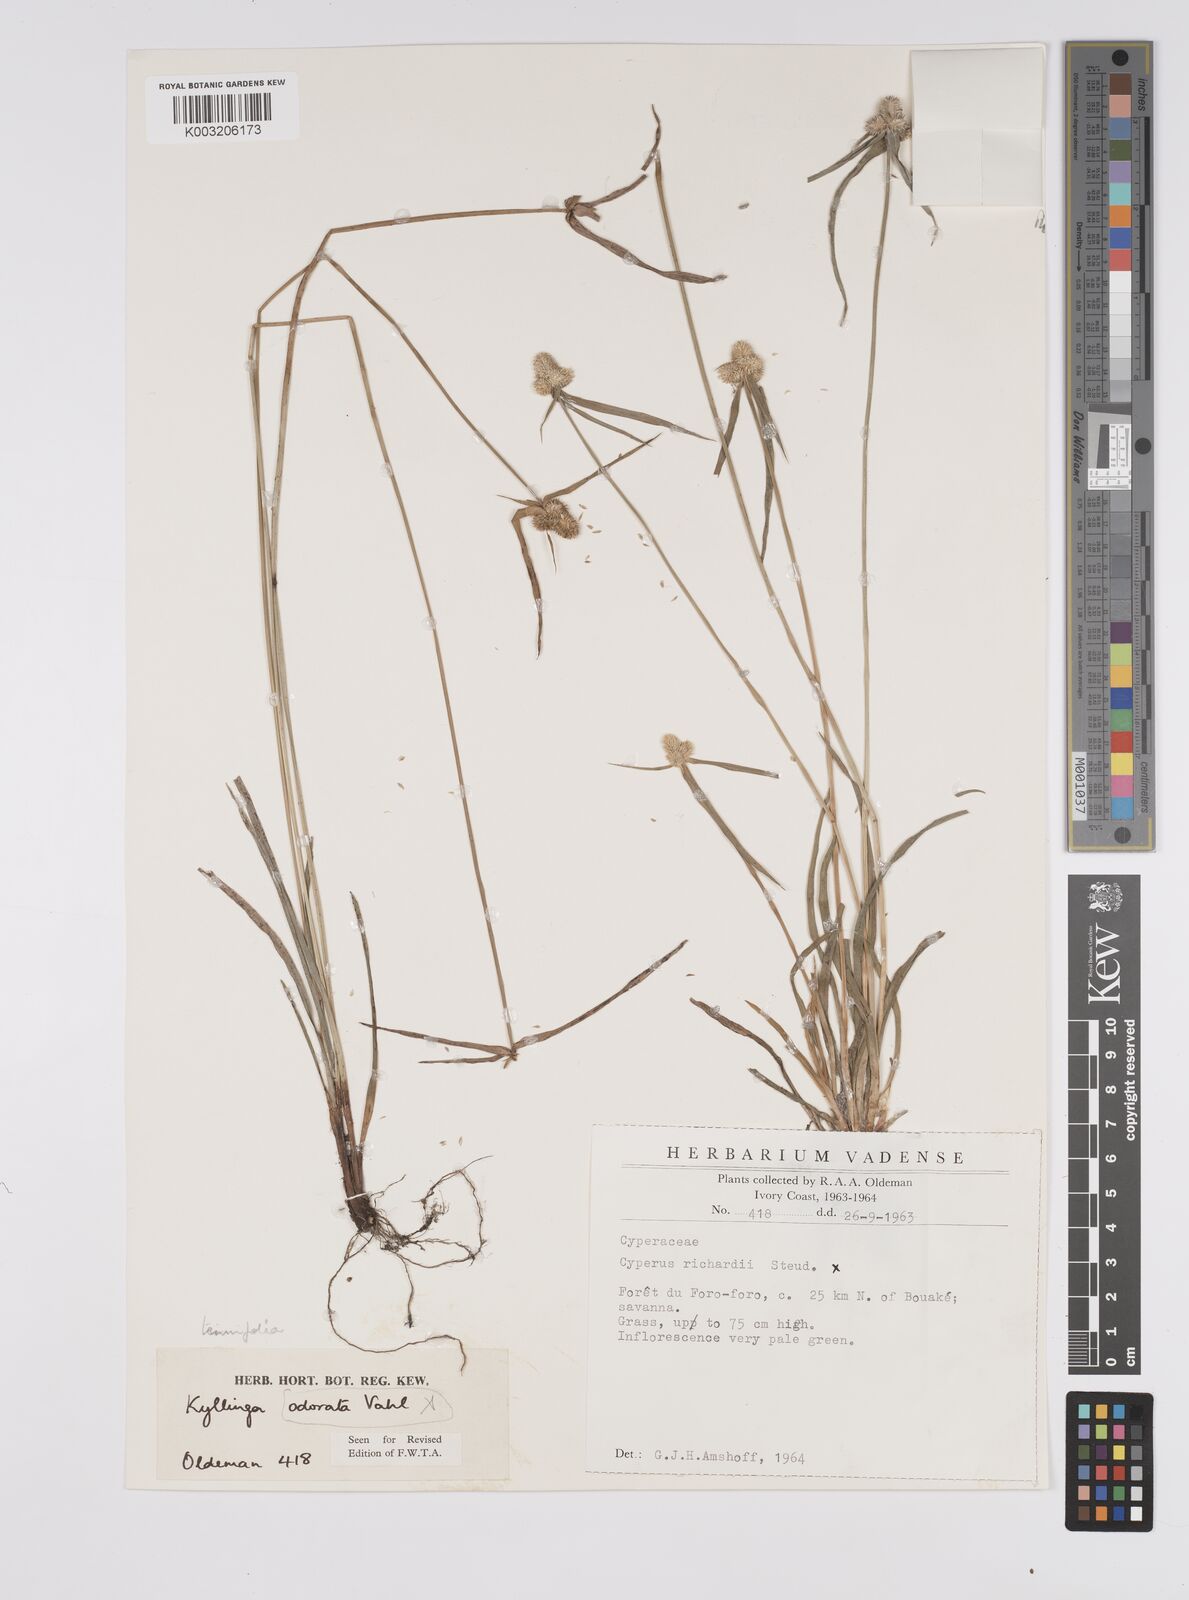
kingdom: Plantae
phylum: Tracheophyta
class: Liliopsida
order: Poales
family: Cyperaceae
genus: Cyperus
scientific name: Cyperus
